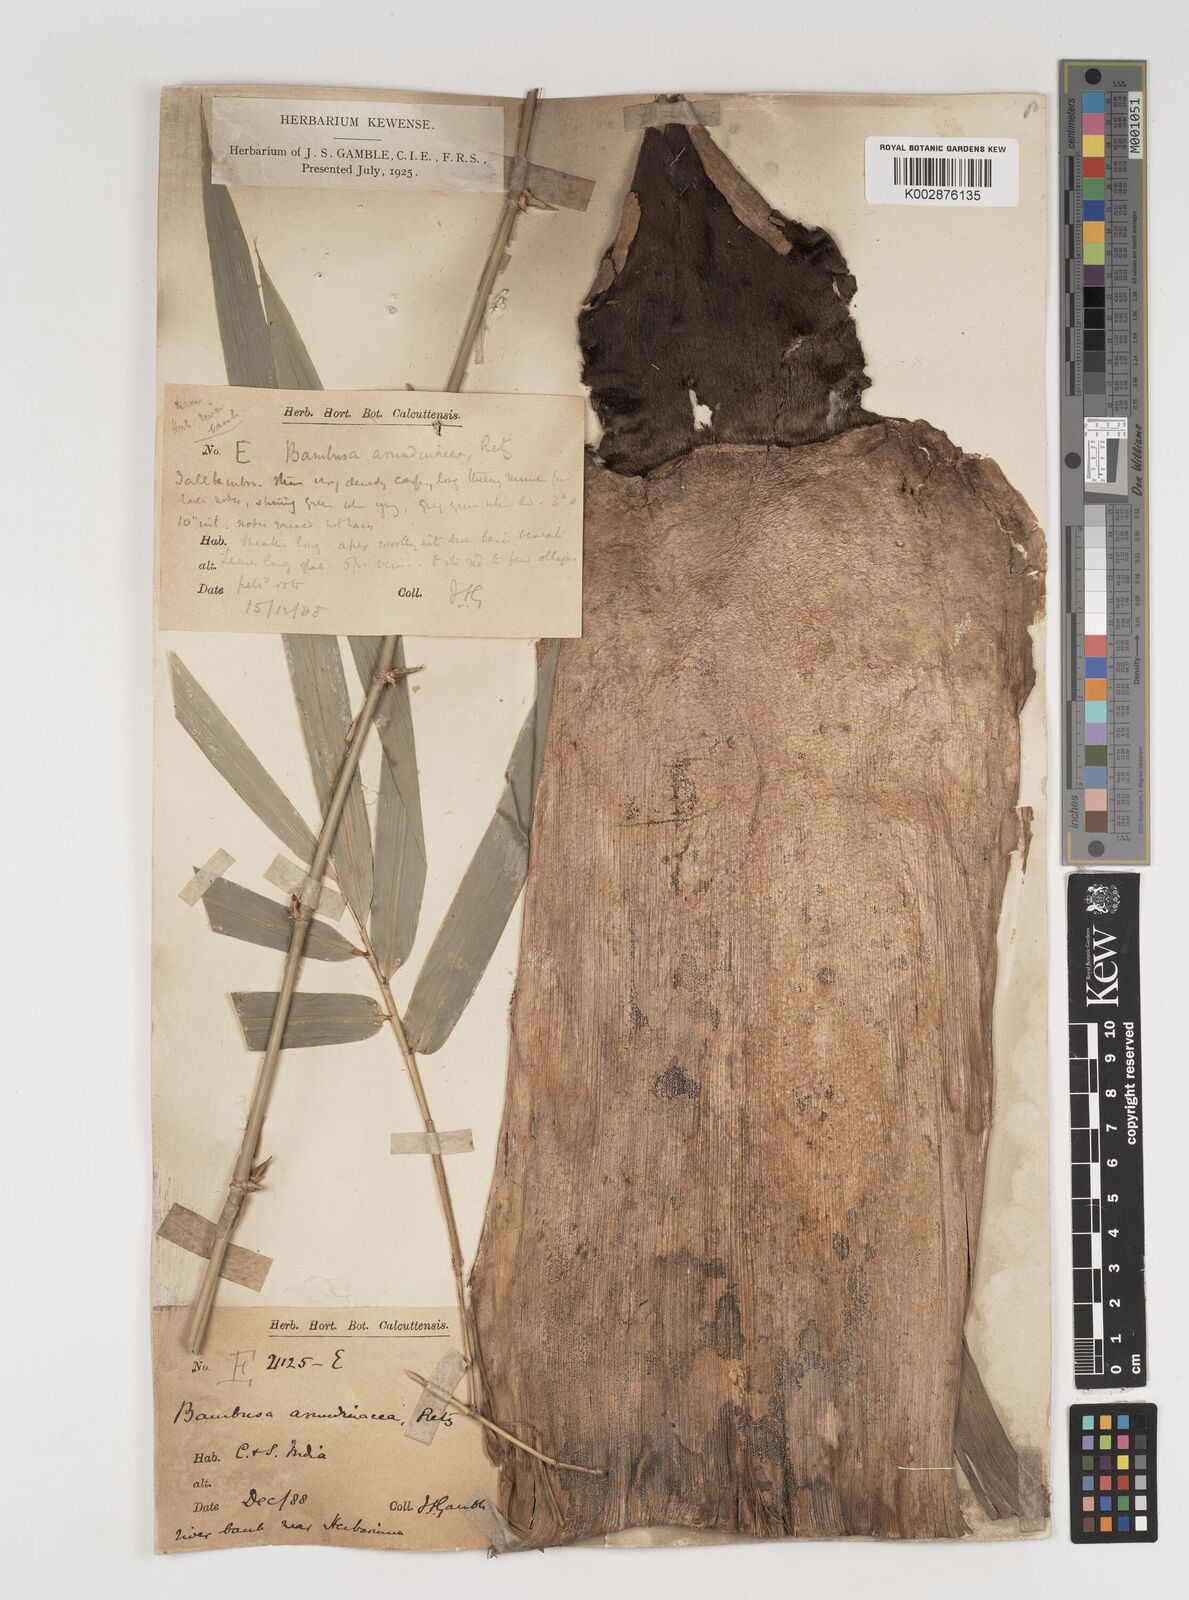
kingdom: Plantae
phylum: Tracheophyta
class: Liliopsida
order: Poales
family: Poaceae
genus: Bambusa
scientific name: Bambusa bambos
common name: Indian thorny bamboo
